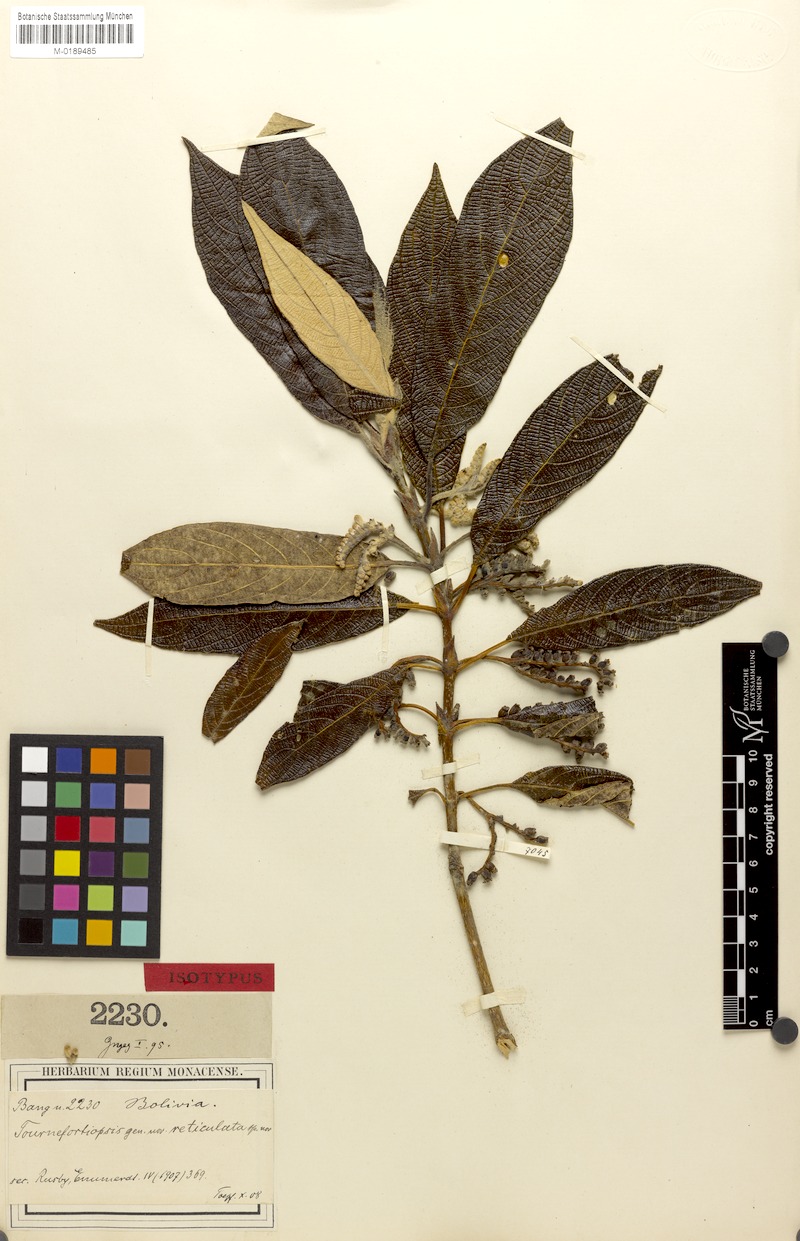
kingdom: Plantae
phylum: Tracheophyta
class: Magnoliopsida
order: Gentianales
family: Rubiaceae
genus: Tournefortiopsis
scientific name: Tournefortiopsis reticulata
